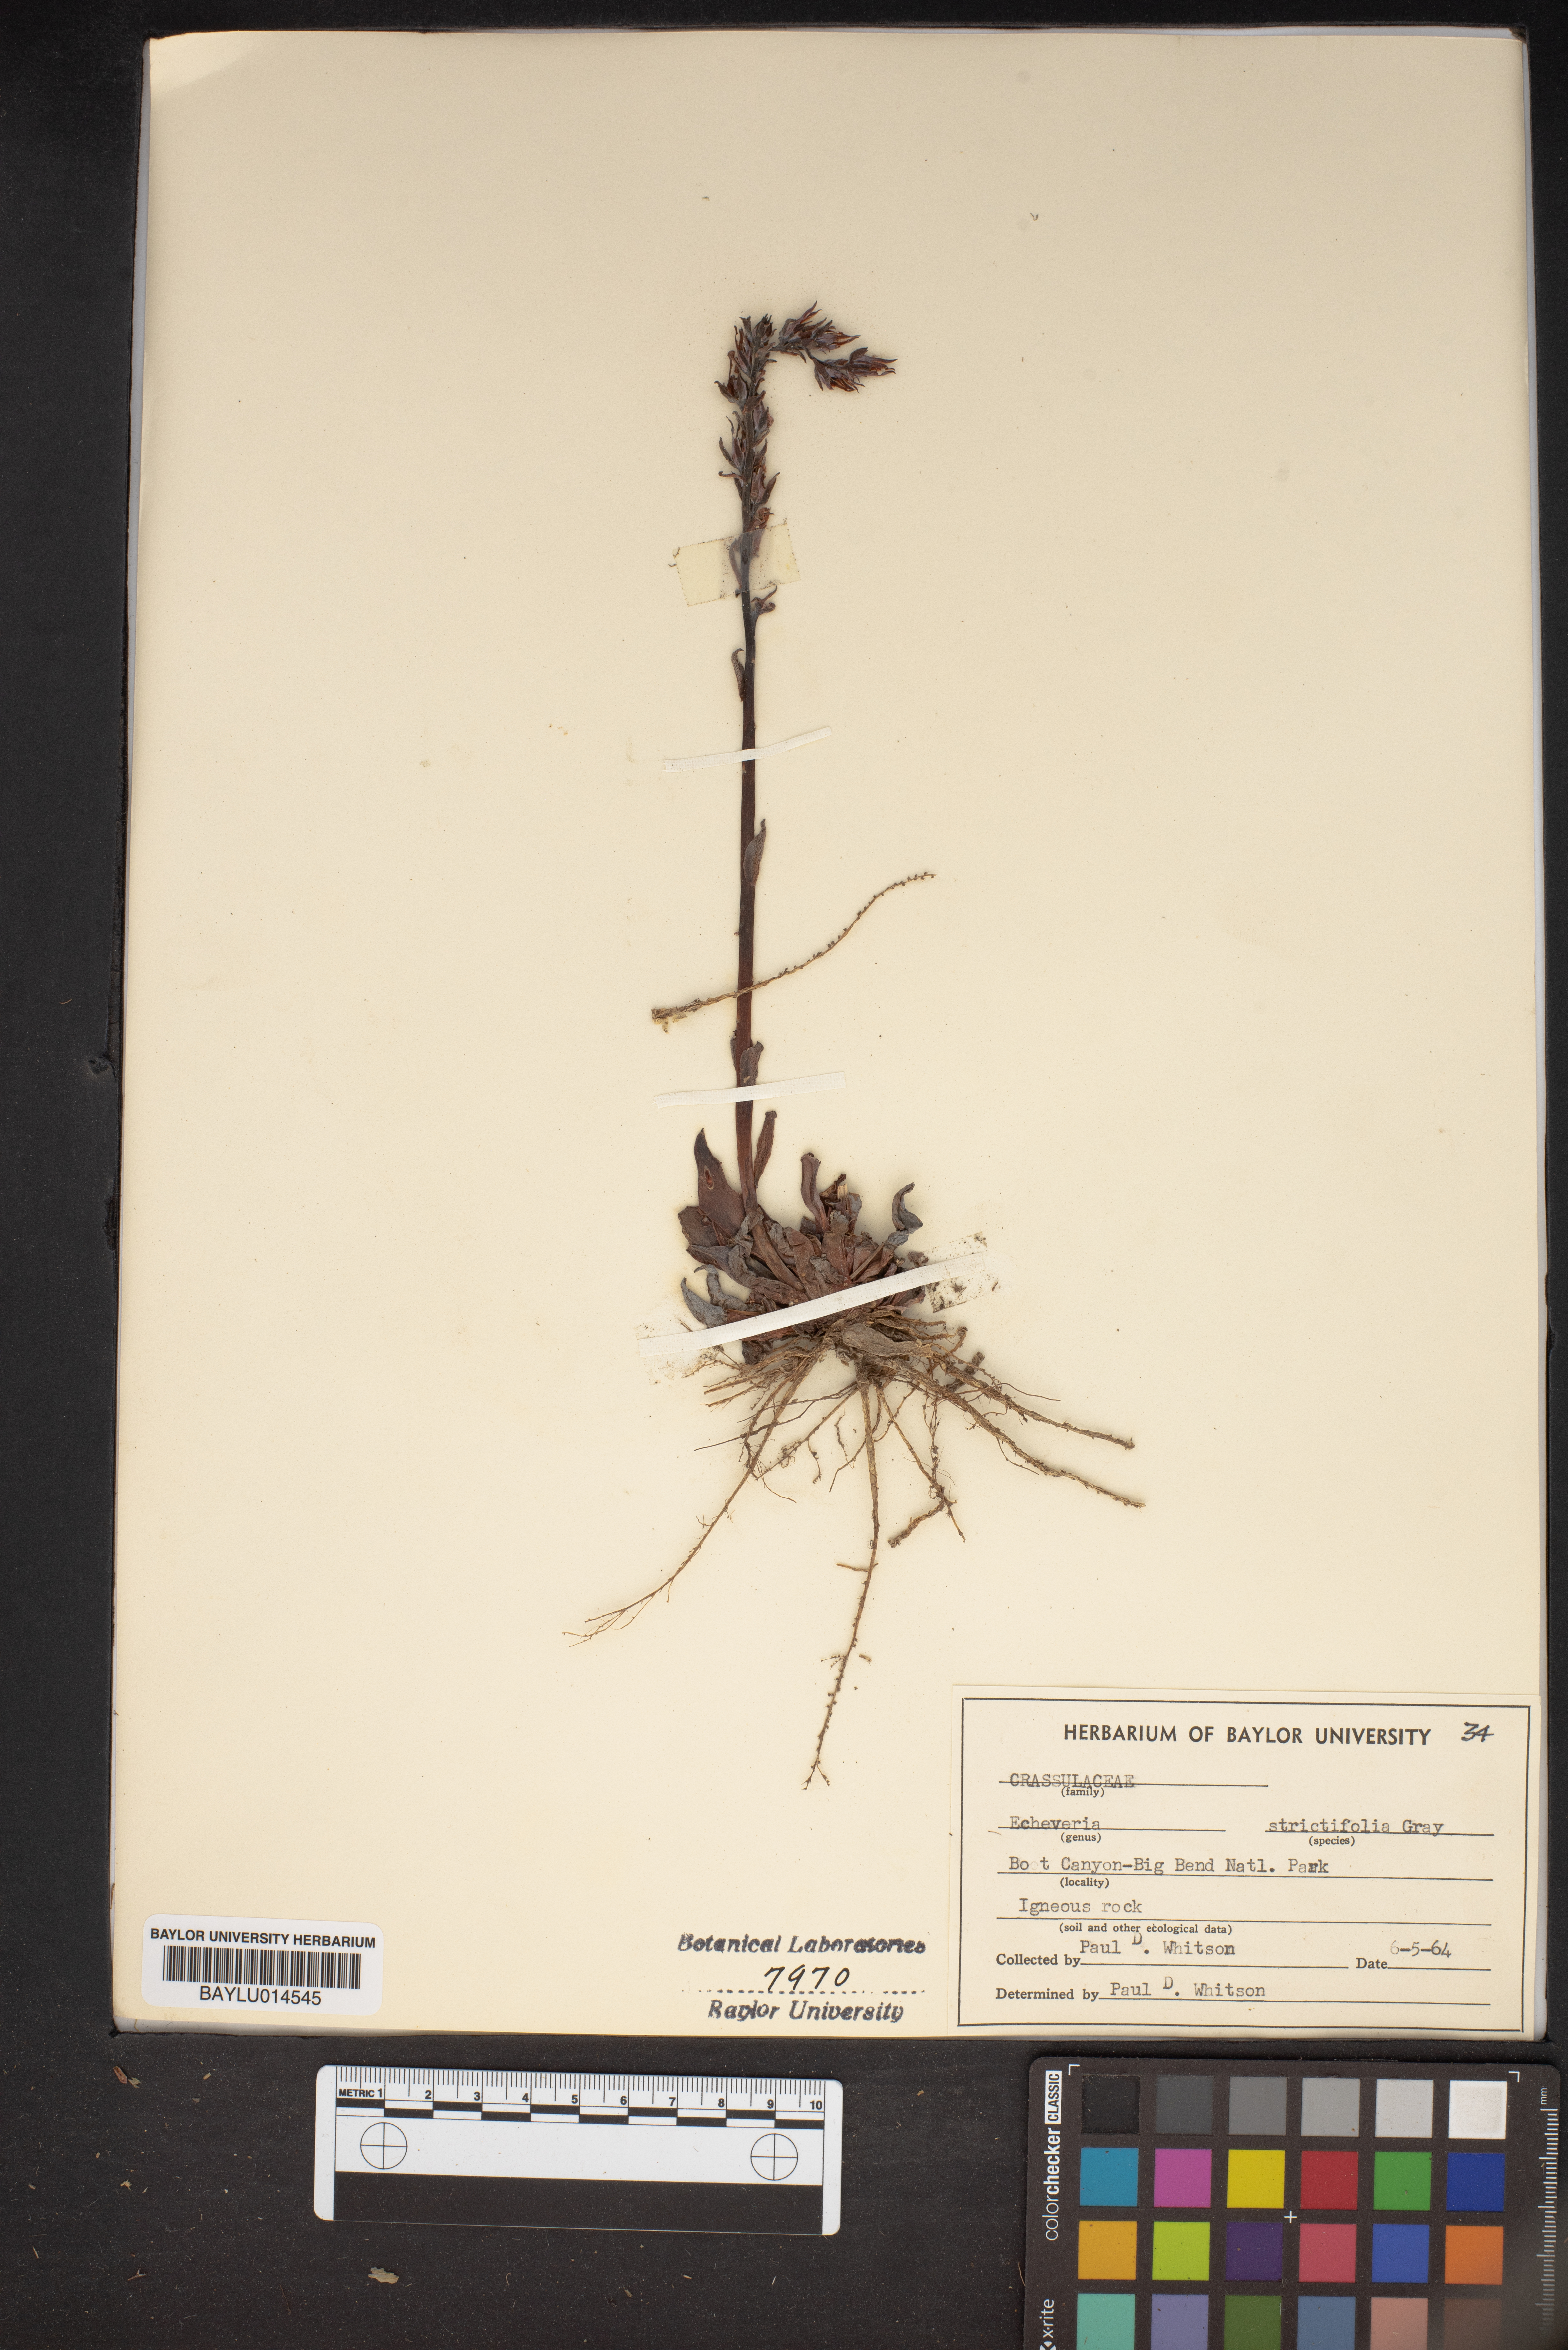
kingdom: Plantae
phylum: Tracheophyta
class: Magnoliopsida
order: Saxifragales
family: Crassulaceae
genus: Echeveria
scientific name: Echeveria strictiflora
